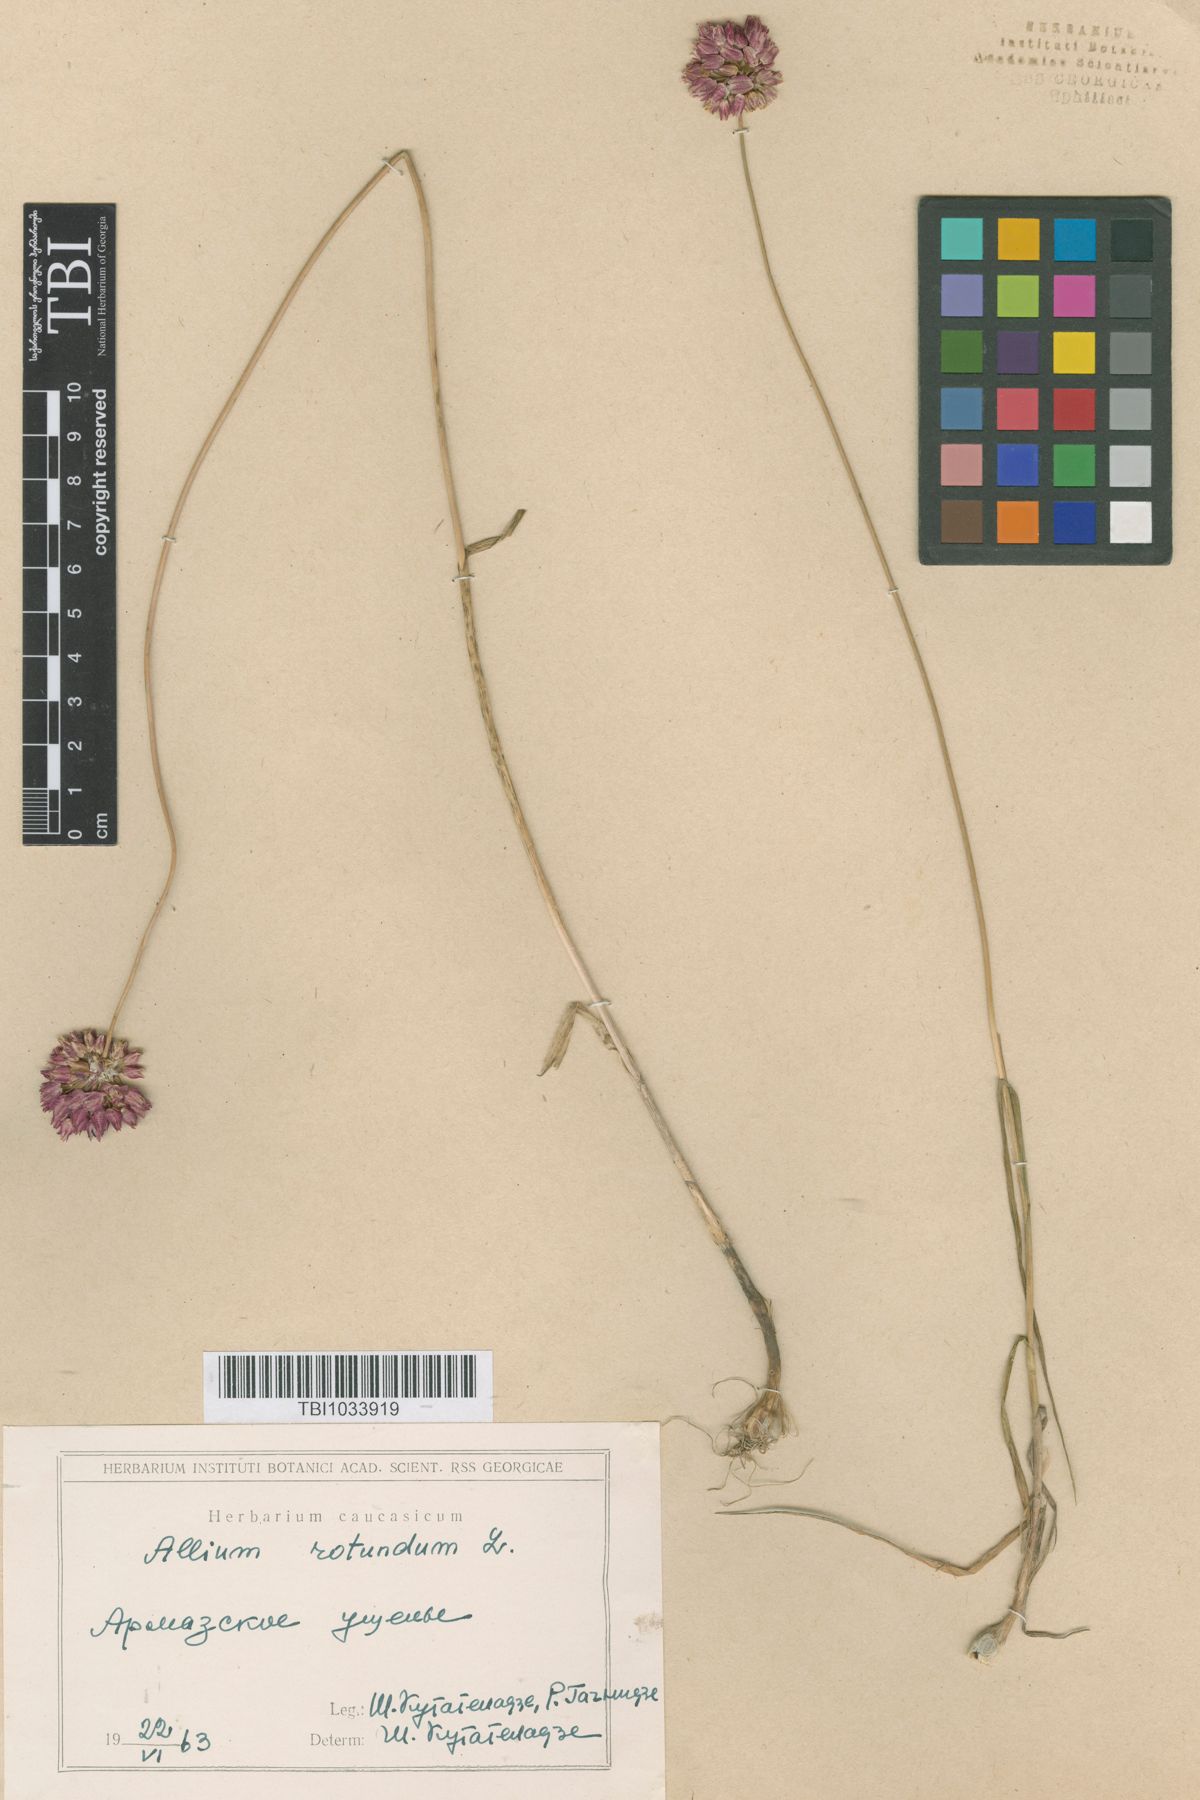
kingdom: Plantae
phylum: Tracheophyta
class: Liliopsida
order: Asparagales
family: Amaryllidaceae
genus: Allium
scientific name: Allium rotundum
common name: Sand leek
